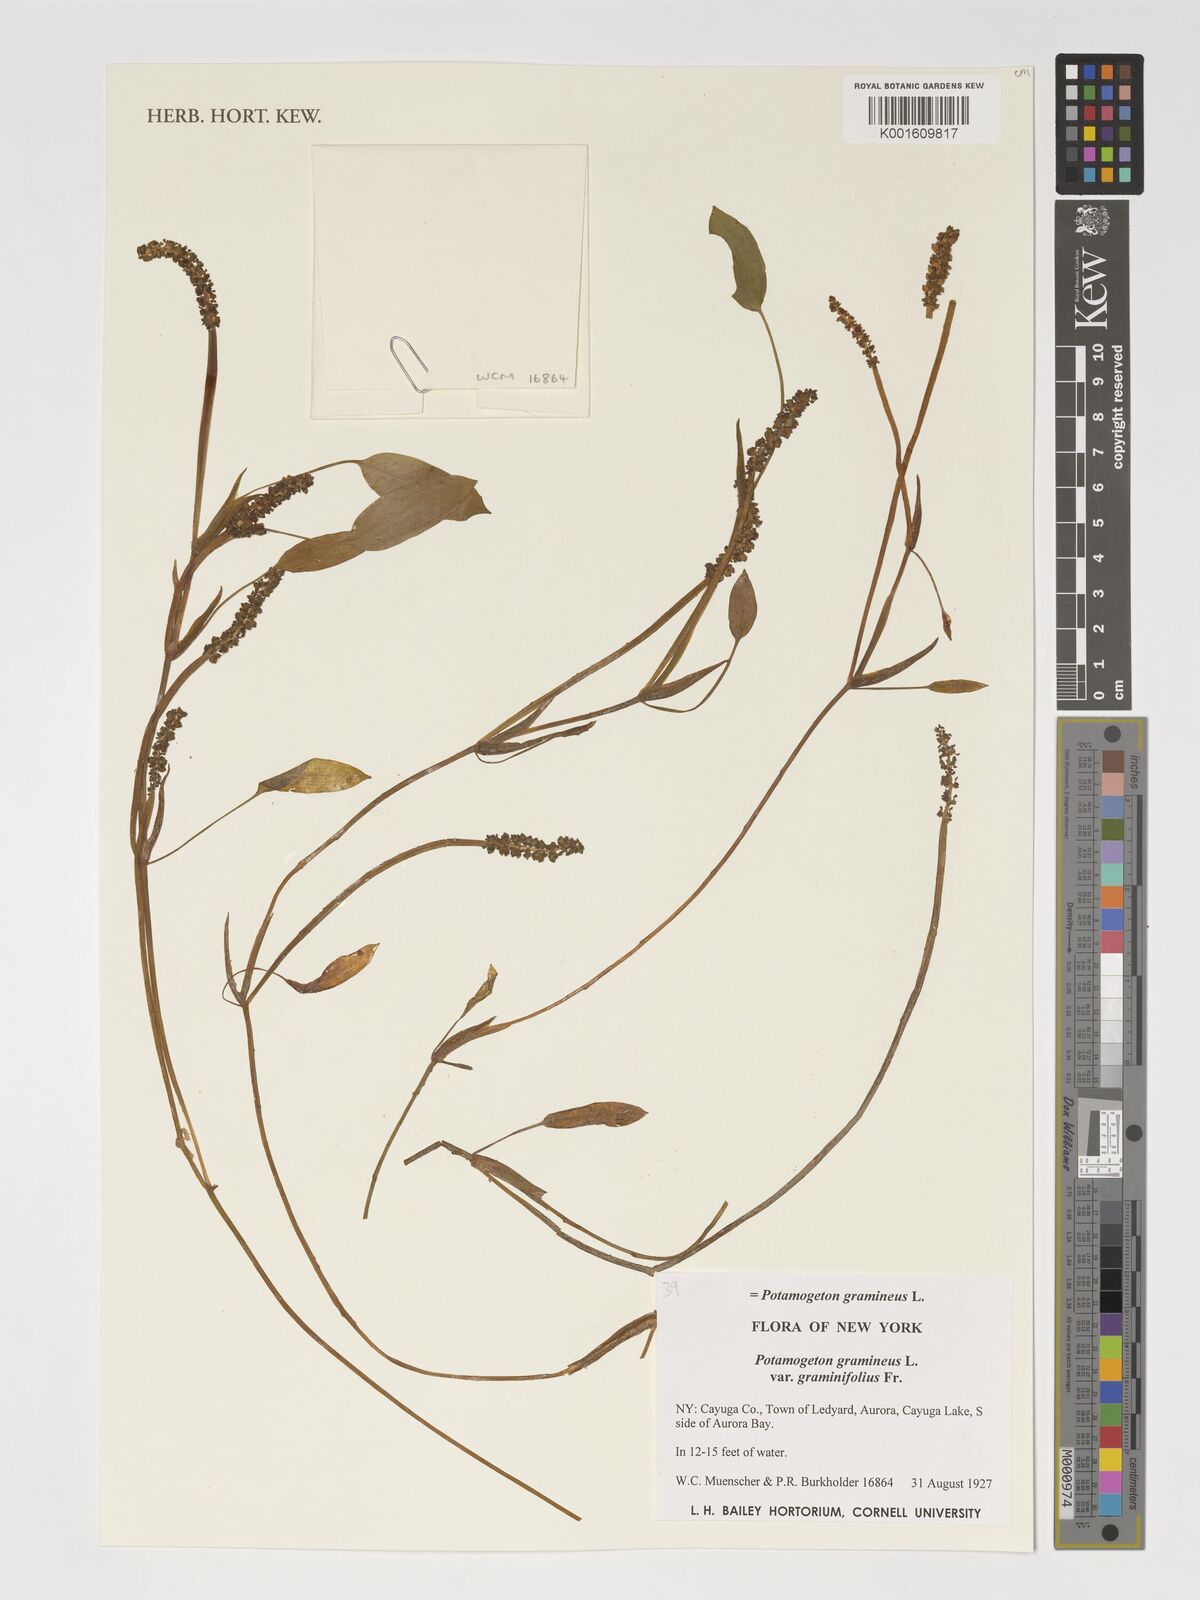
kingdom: Plantae
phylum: Tracheophyta
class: Liliopsida
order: Alismatales
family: Potamogetonaceae
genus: Potamogeton
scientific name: Potamogeton gramineus
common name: Various-leaved pondweed
